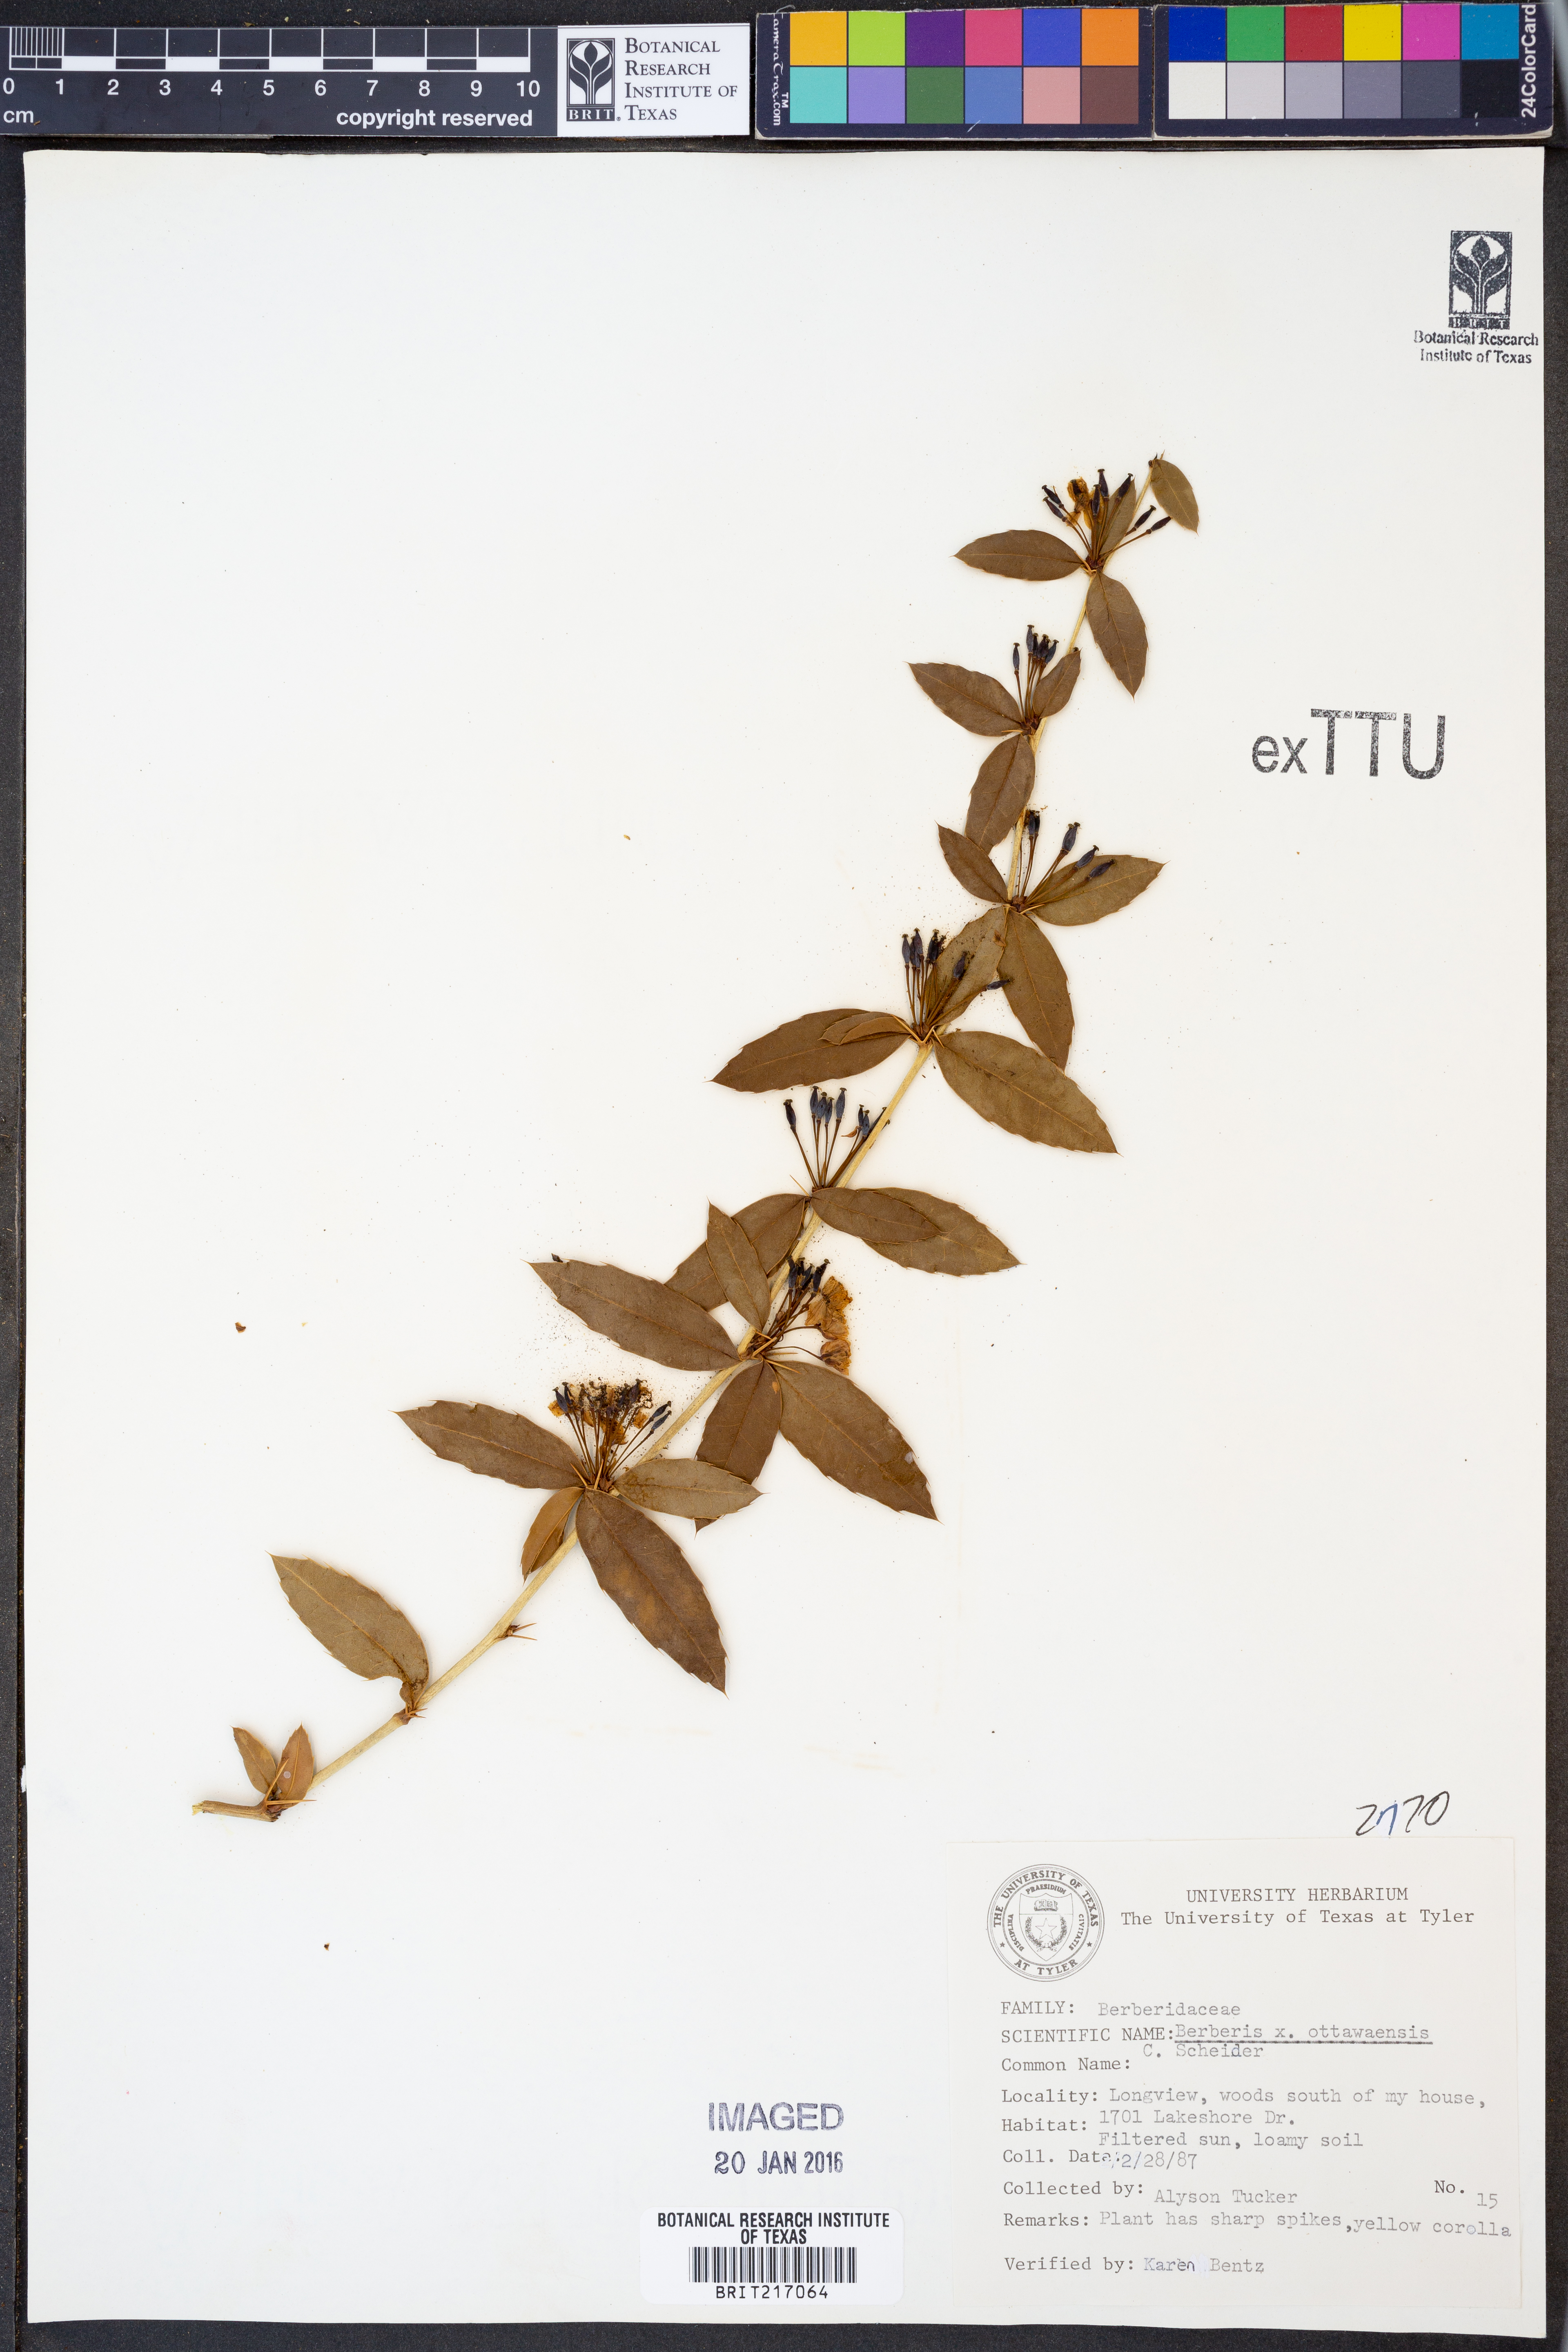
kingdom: Plantae
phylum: Tracheophyta
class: Magnoliopsida
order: Ranunculales
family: Berberidaceae
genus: Berberis
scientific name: Berberis
